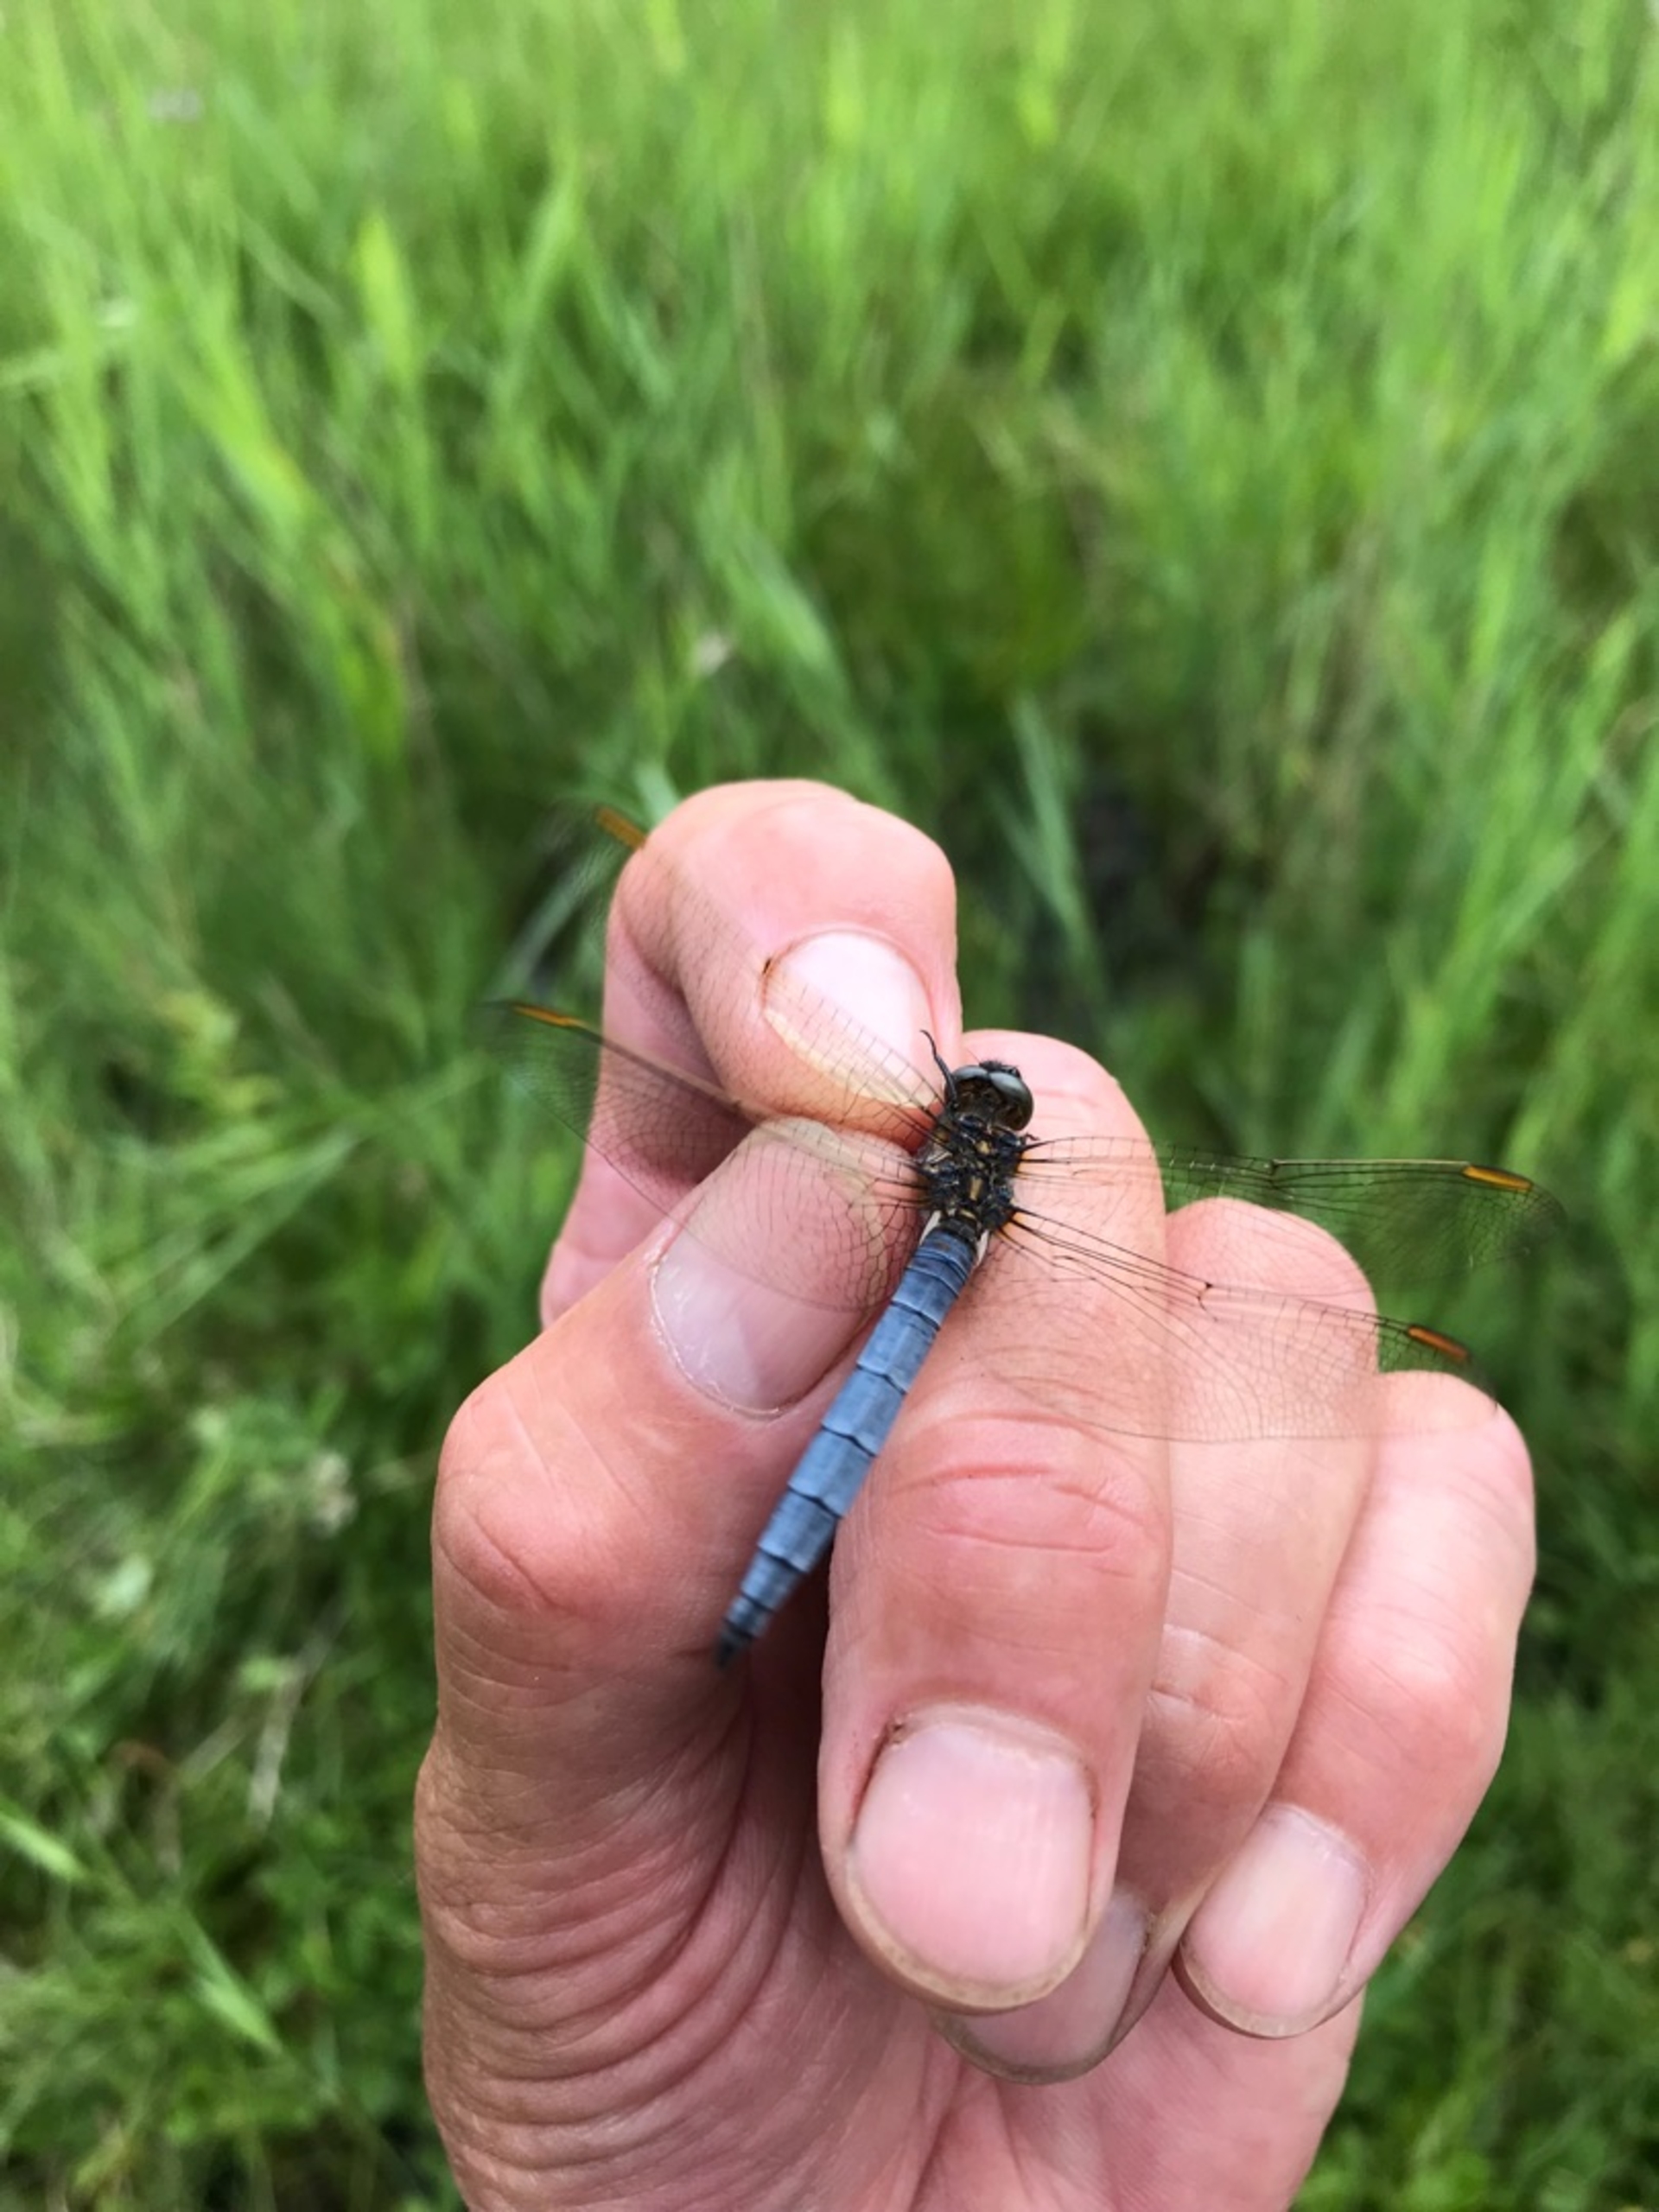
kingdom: Animalia
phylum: Arthropoda
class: Insecta
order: Odonata
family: Libellulidae
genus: Orthetrum
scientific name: Orthetrum coerulescens
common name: Lille blåpil
